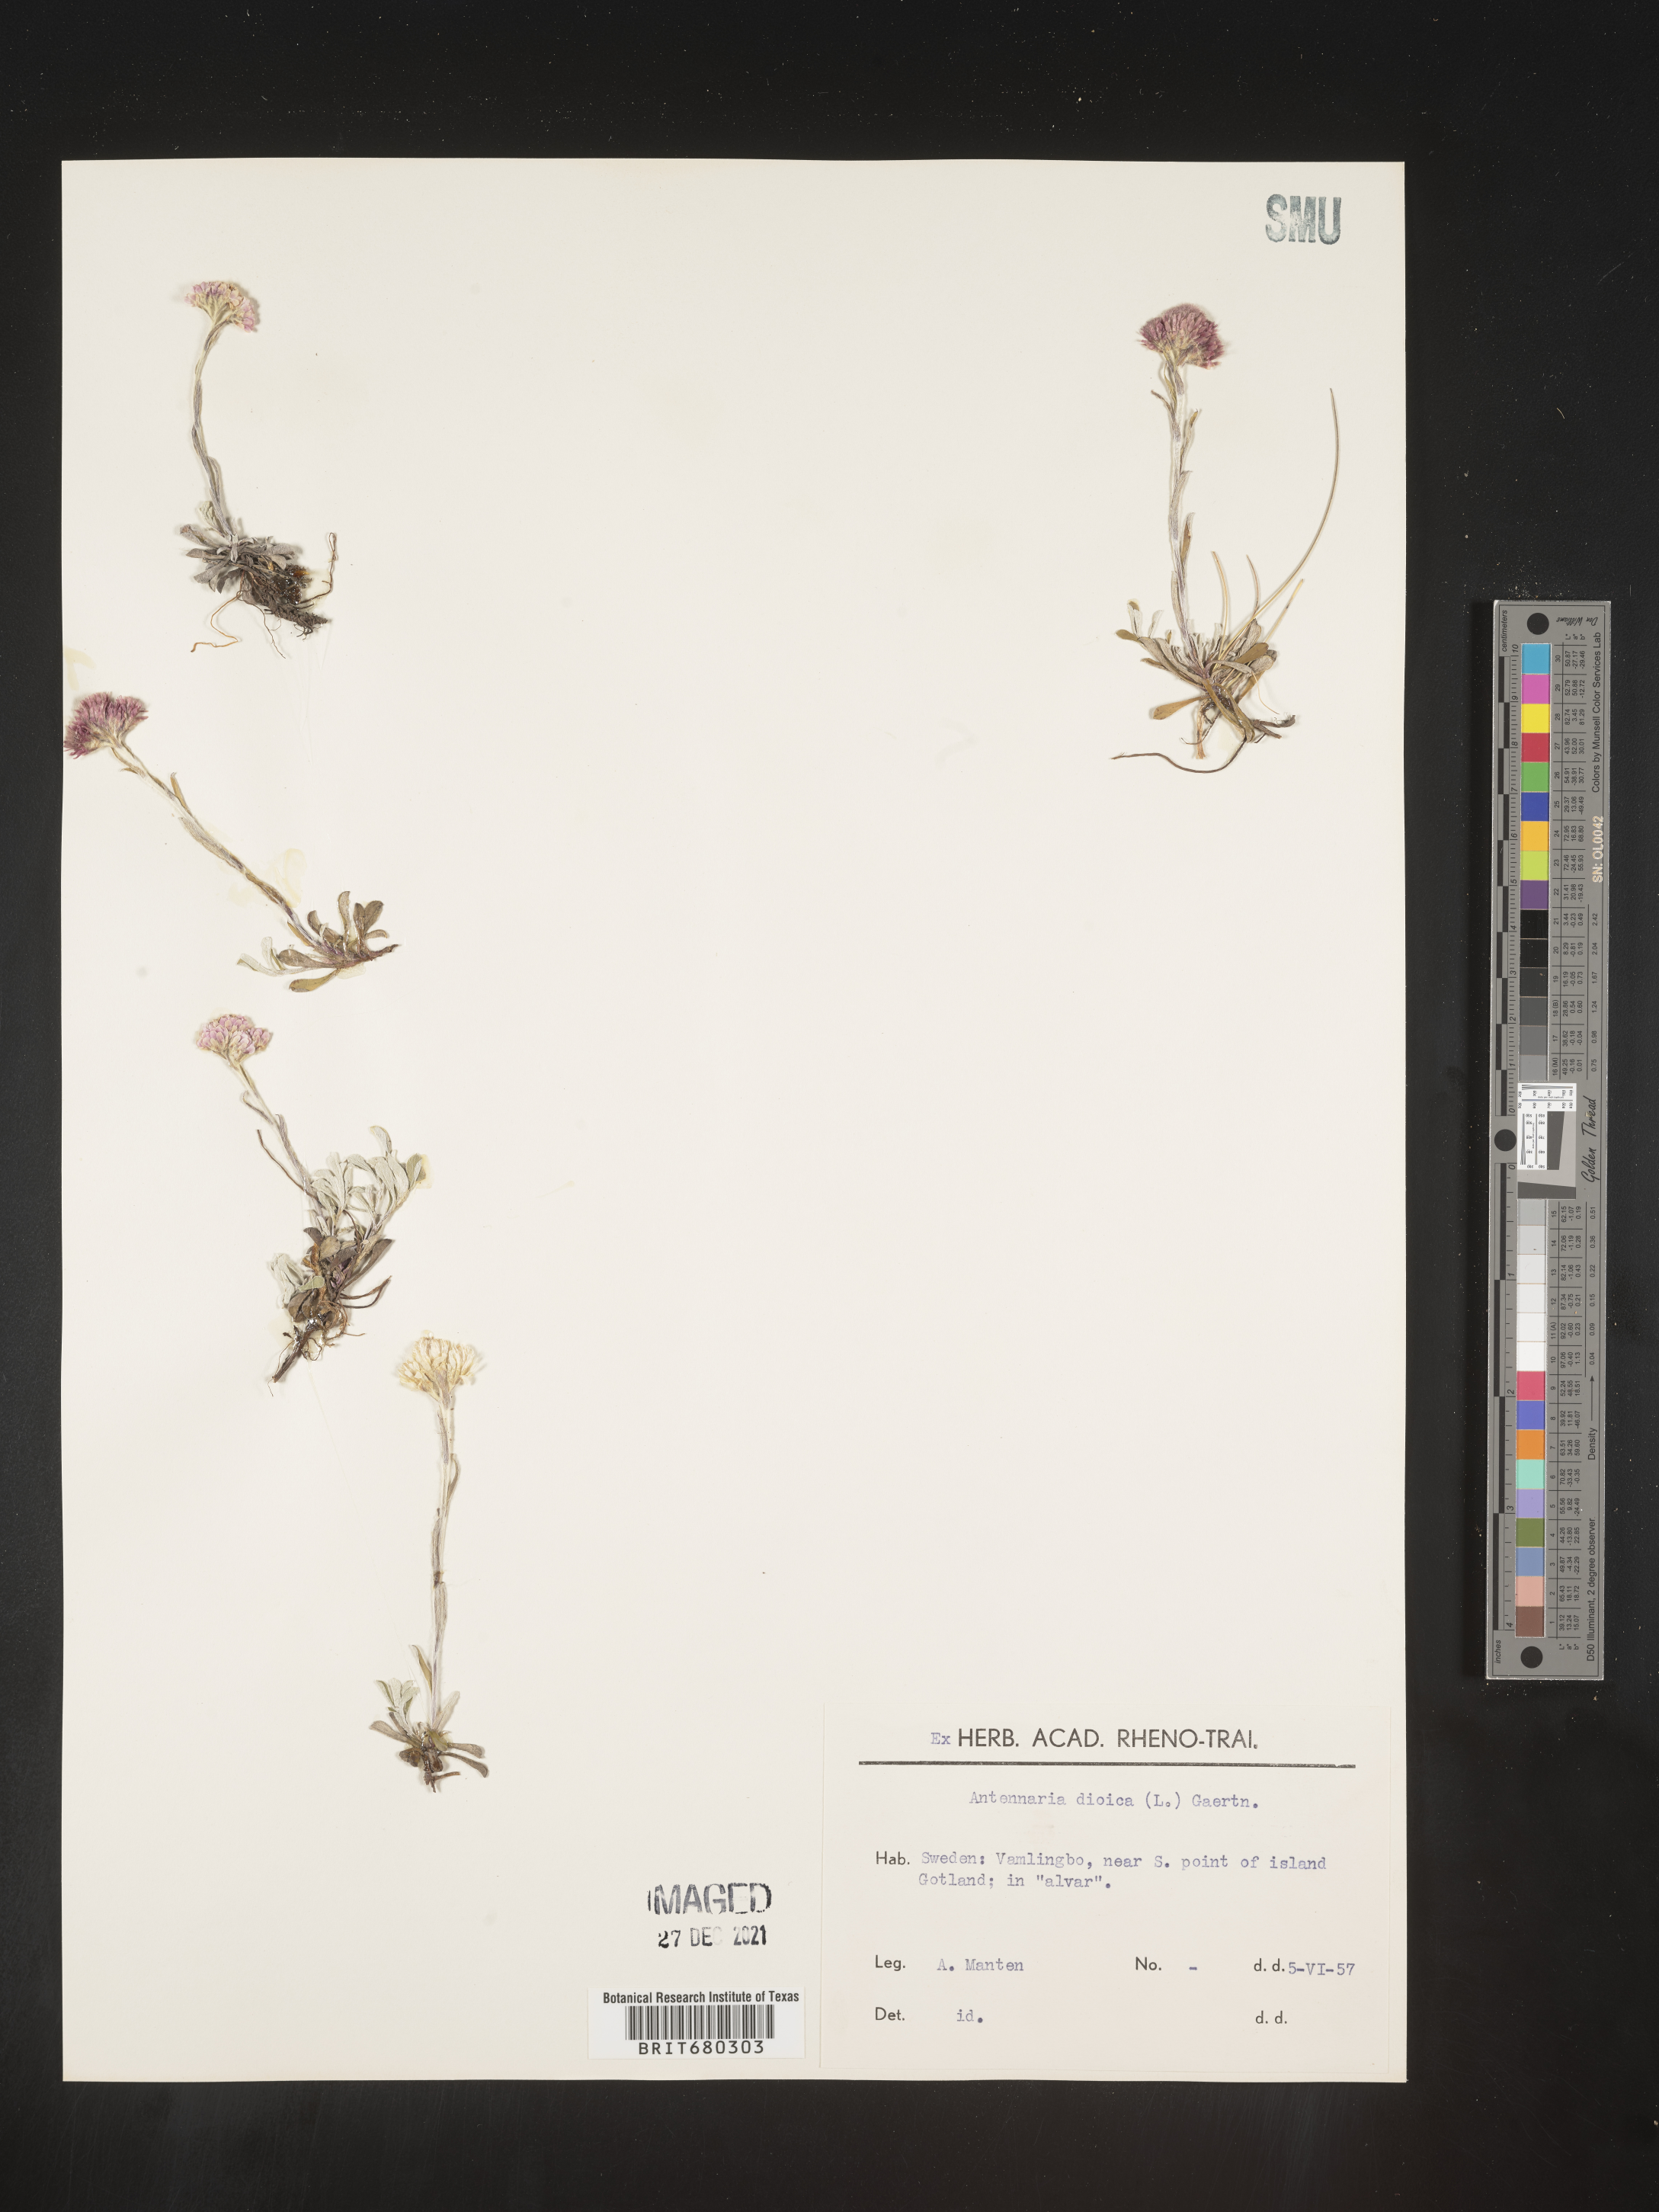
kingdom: Plantae
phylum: Tracheophyta
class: Magnoliopsida
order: Asterales
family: Asteraceae
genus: Antennaria
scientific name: Antennaria dioica
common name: Mountain everlasting
